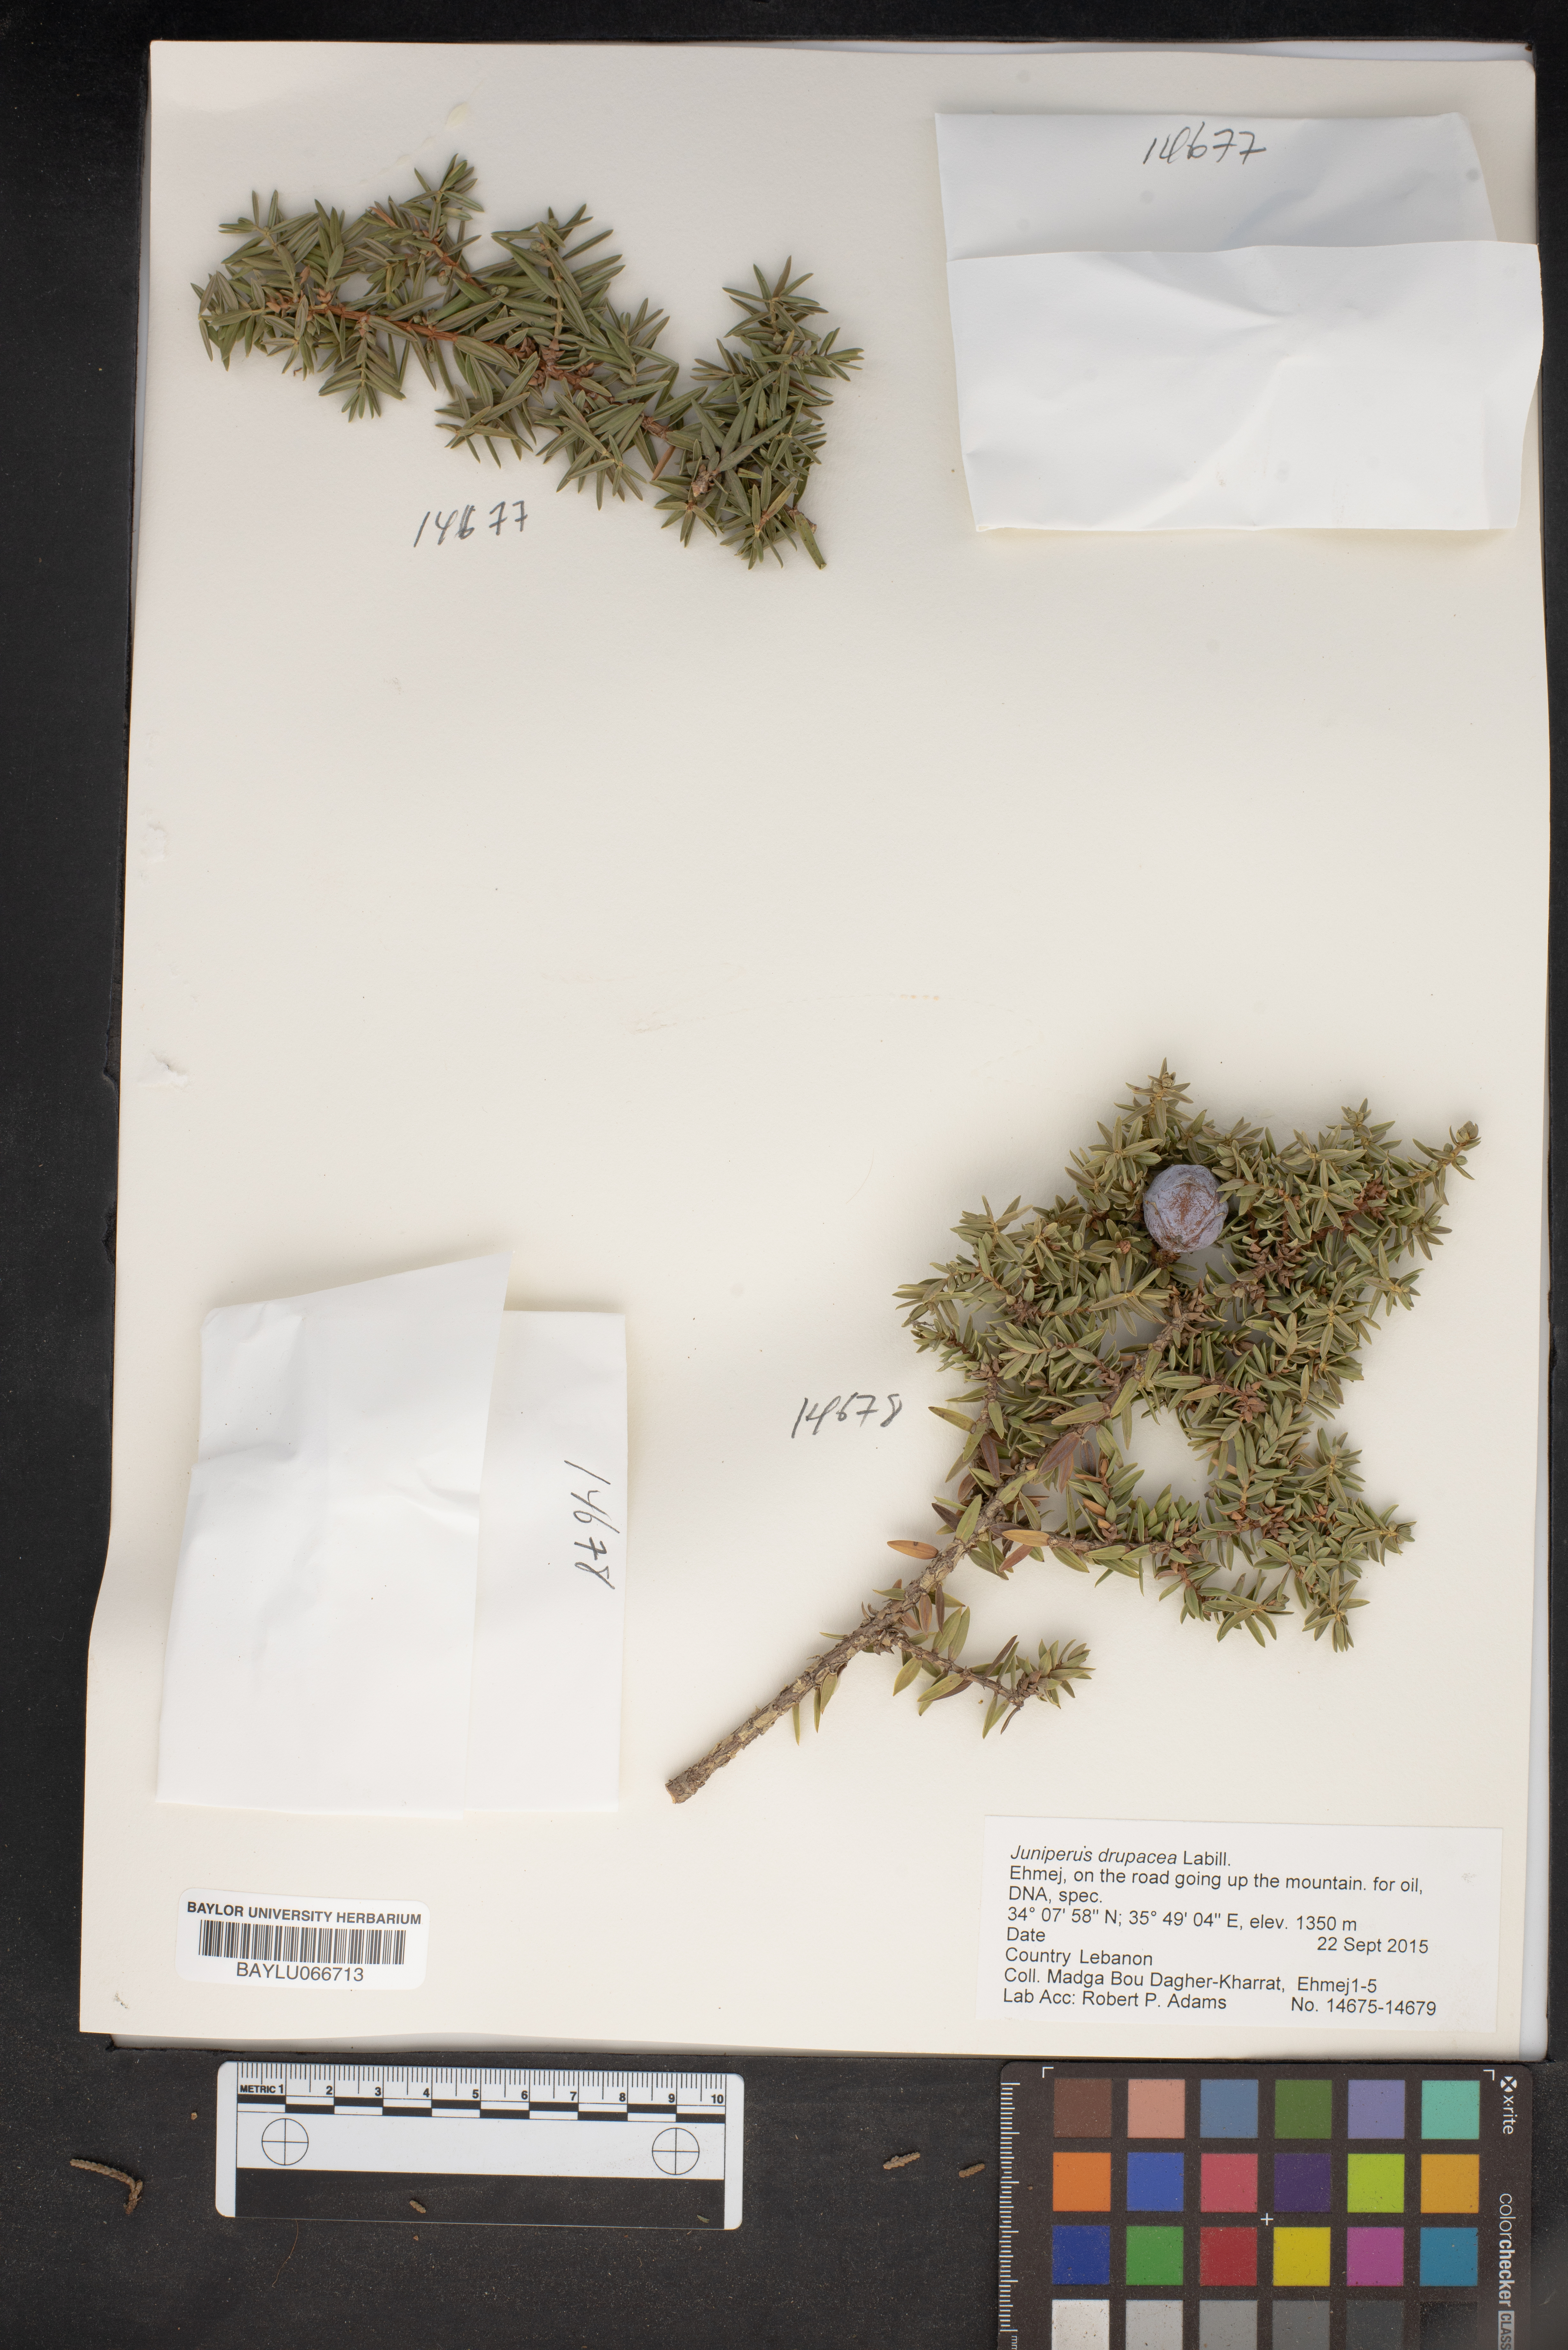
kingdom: Plantae
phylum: Tracheophyta
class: Pinopsida
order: Pinales
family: Cupressaceae
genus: Juniperus
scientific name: Juniperus drupacea
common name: Syrian juniper
